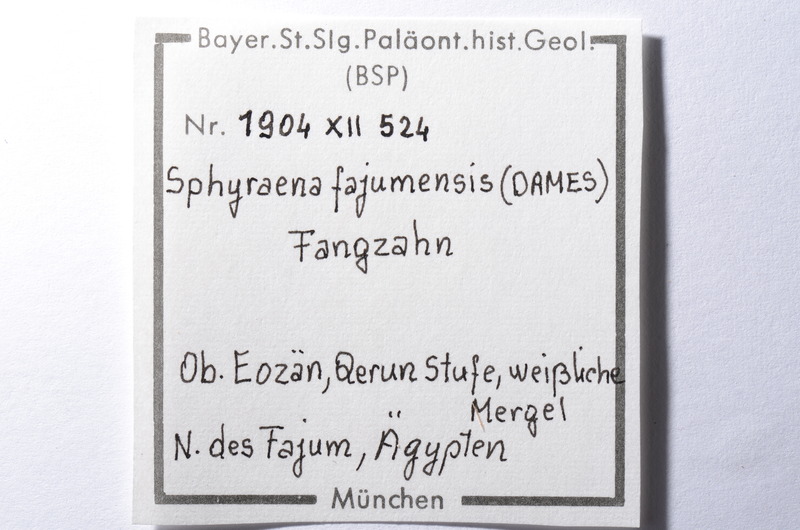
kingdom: Animalia
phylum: Chordata
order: Perciformes
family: Sphyraenidae
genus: Sphyraena
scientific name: Sphyraena Saurocephalus fajumensis
